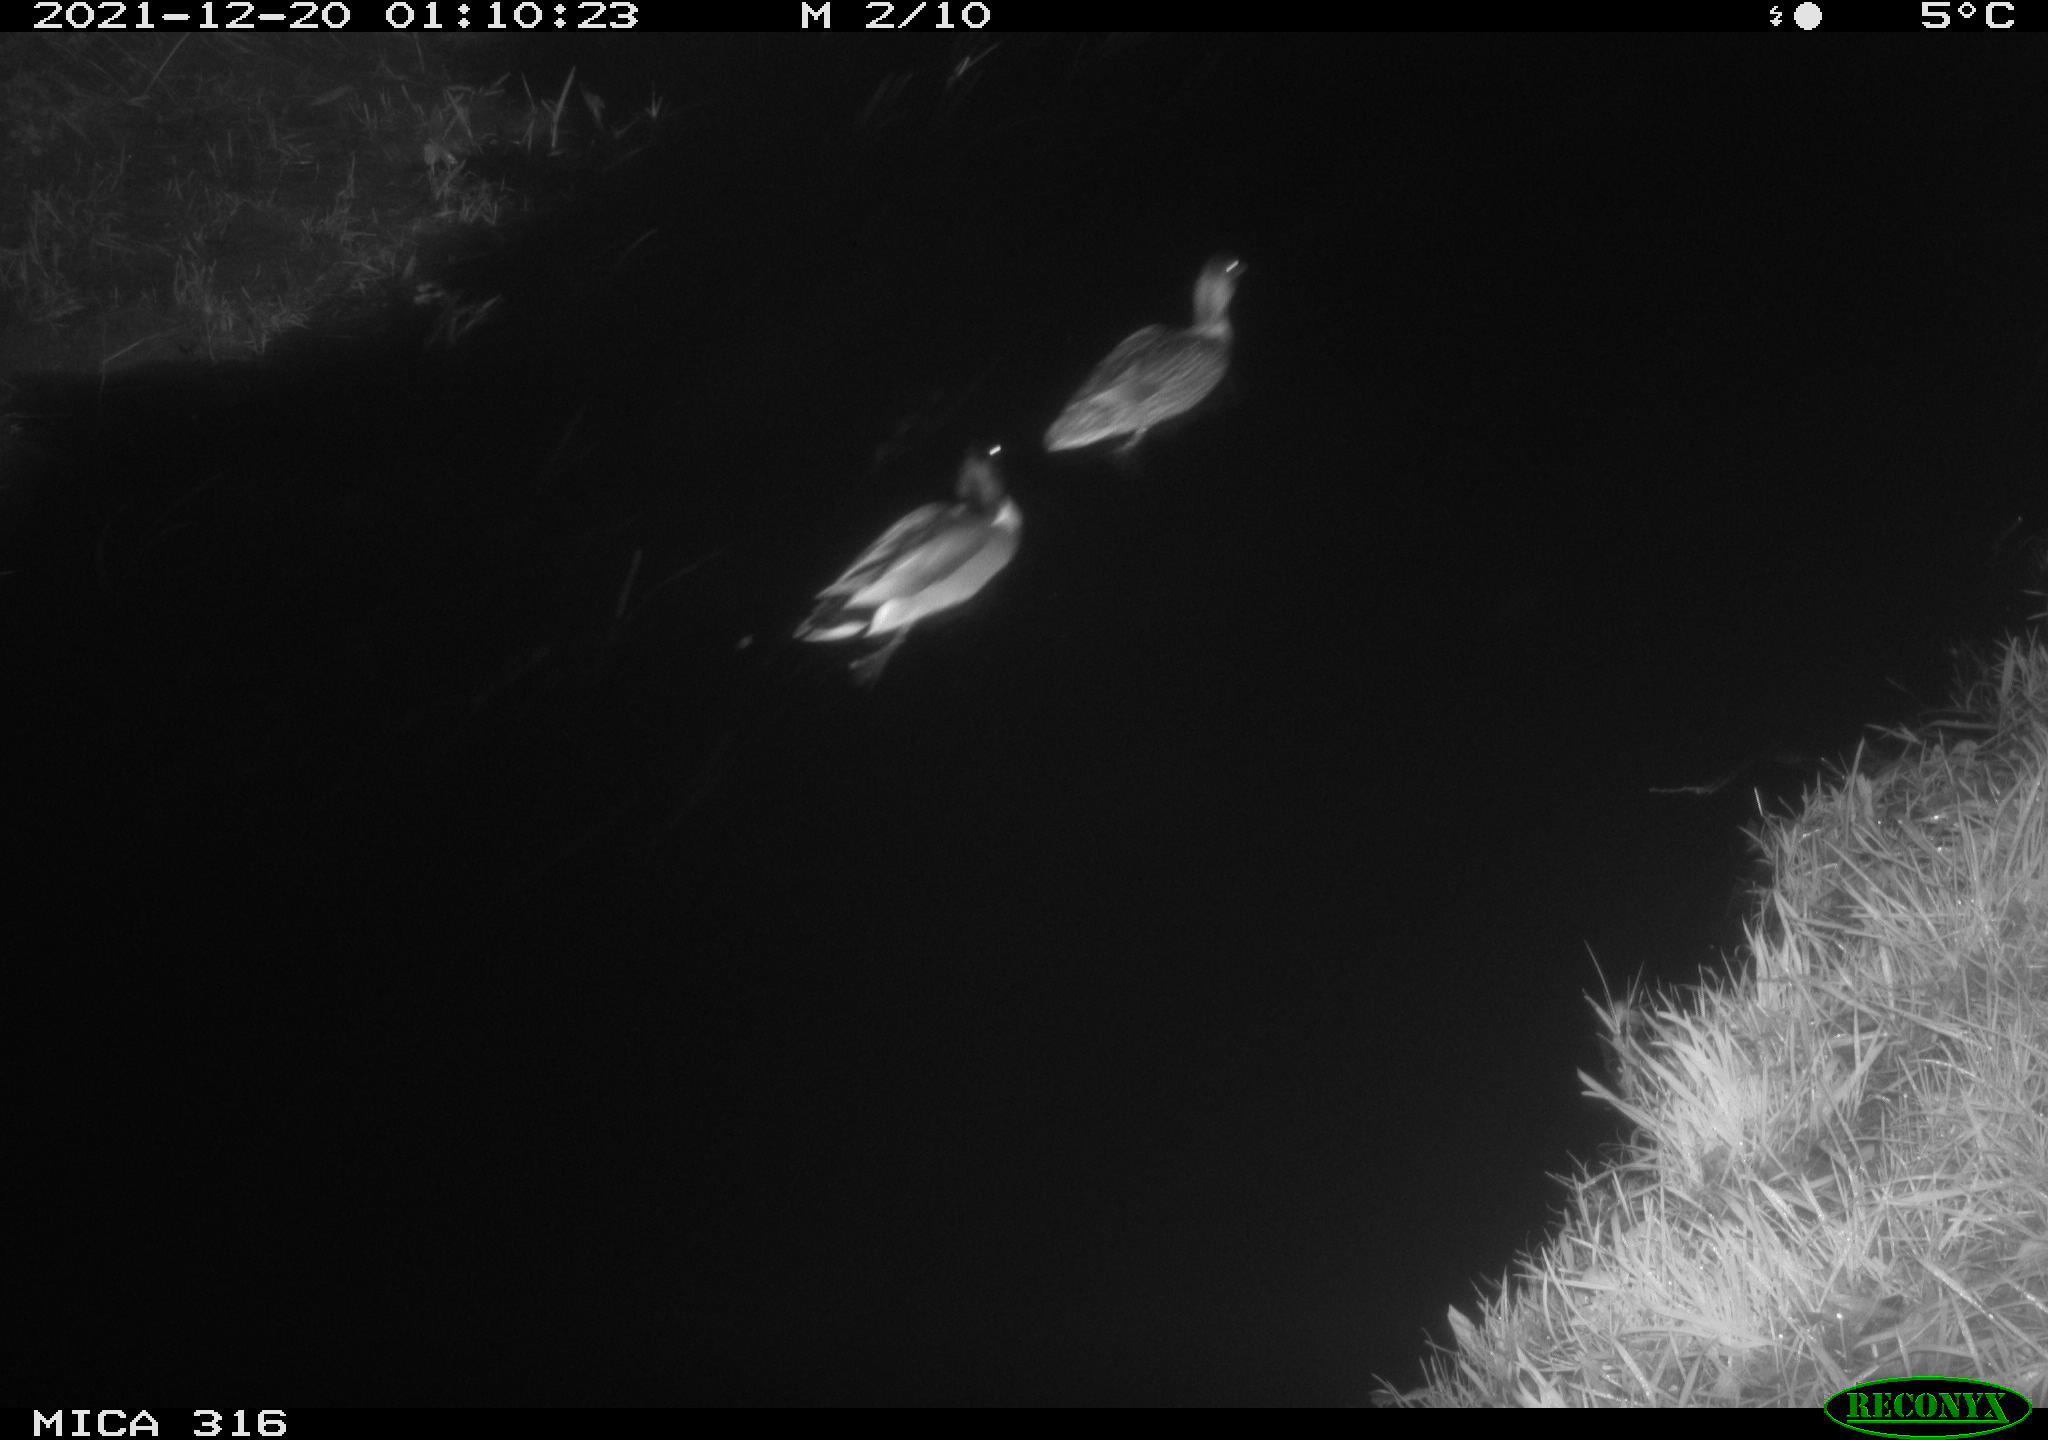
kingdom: Animalia
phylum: Chordata
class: Aves
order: Anseriformes
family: Anatidae
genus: Anas
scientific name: Anas
